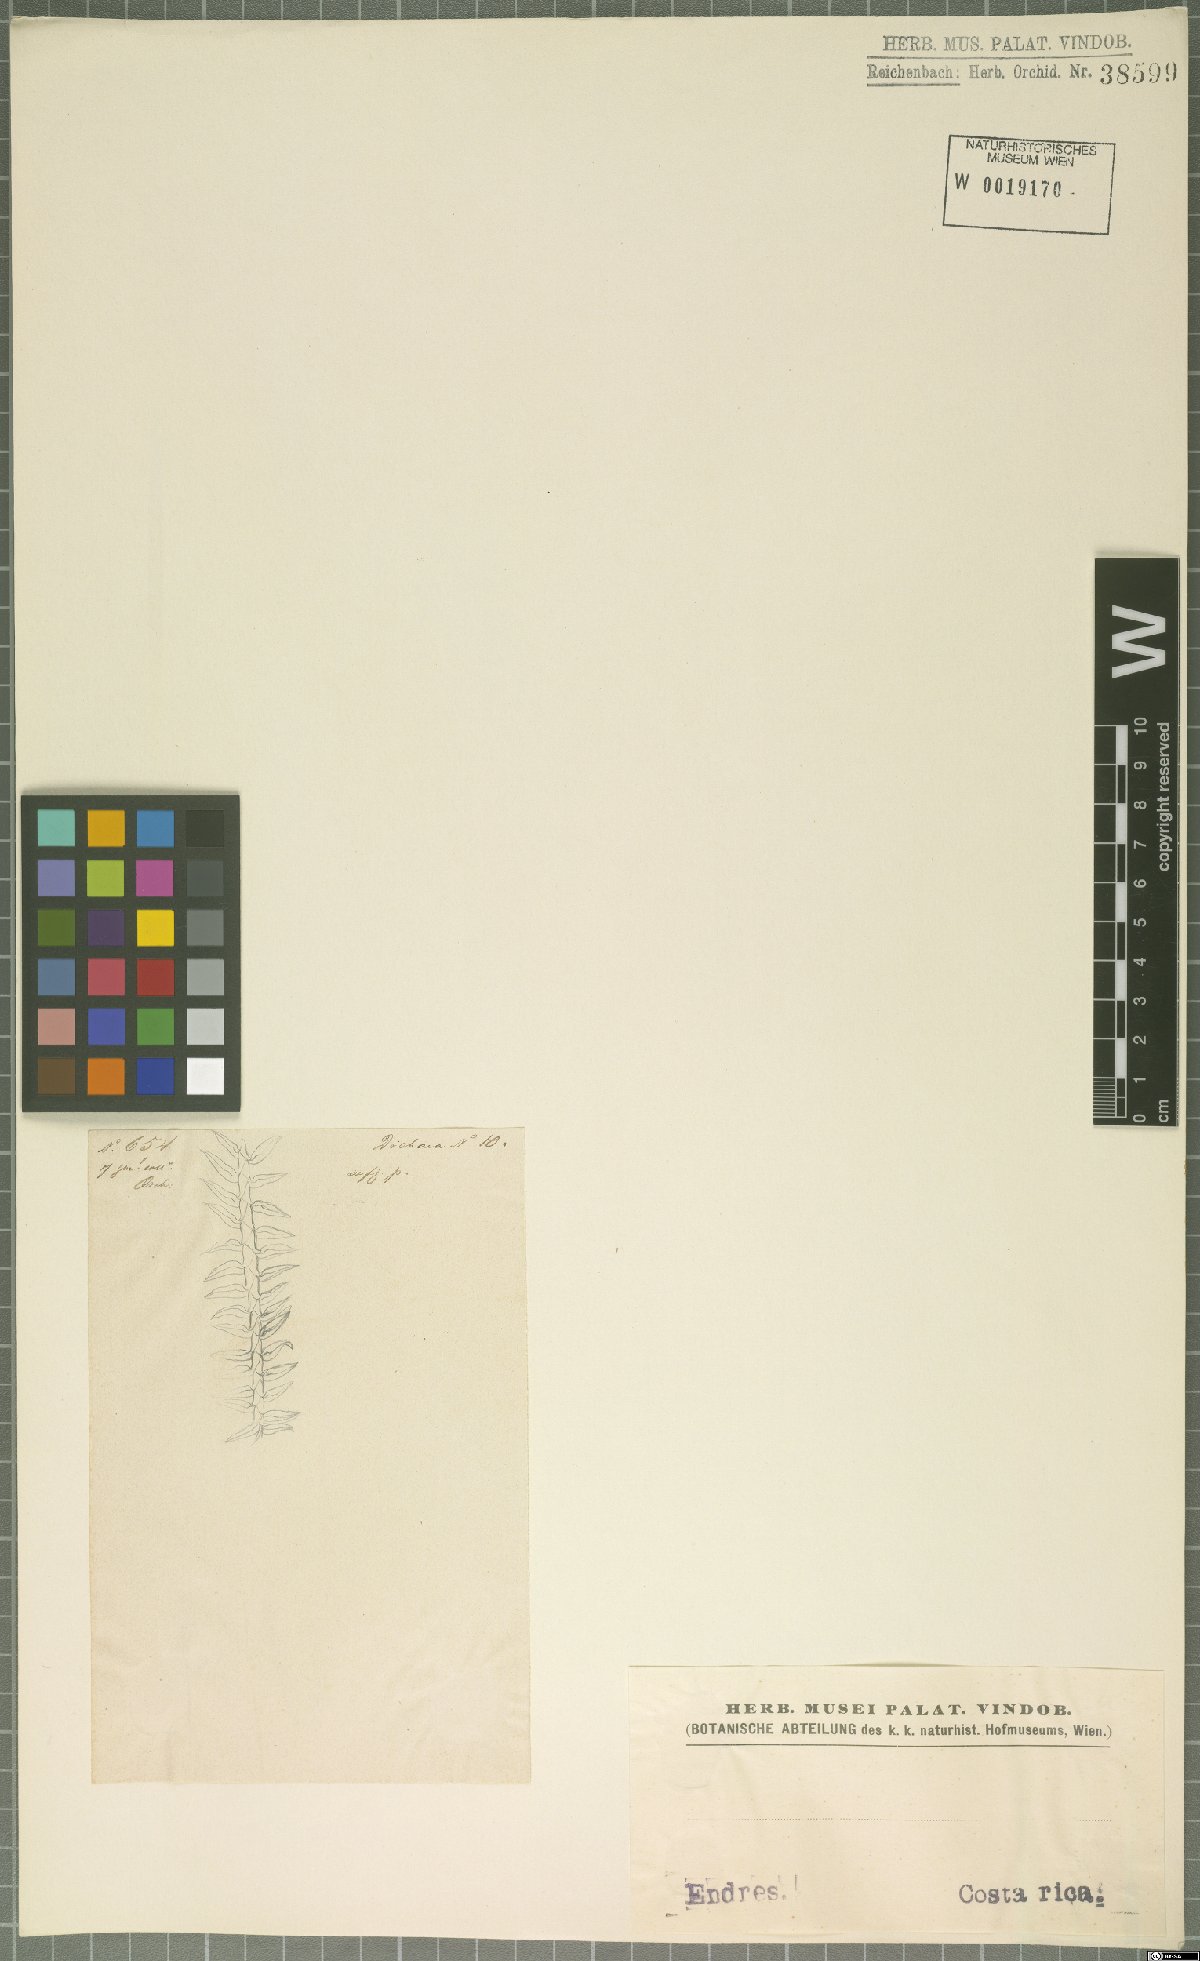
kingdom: Plantae
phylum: Tracheophyta
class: Liliopsida
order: Asparagales
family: Orchidaceae
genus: Dichaea
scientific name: Dichaea
